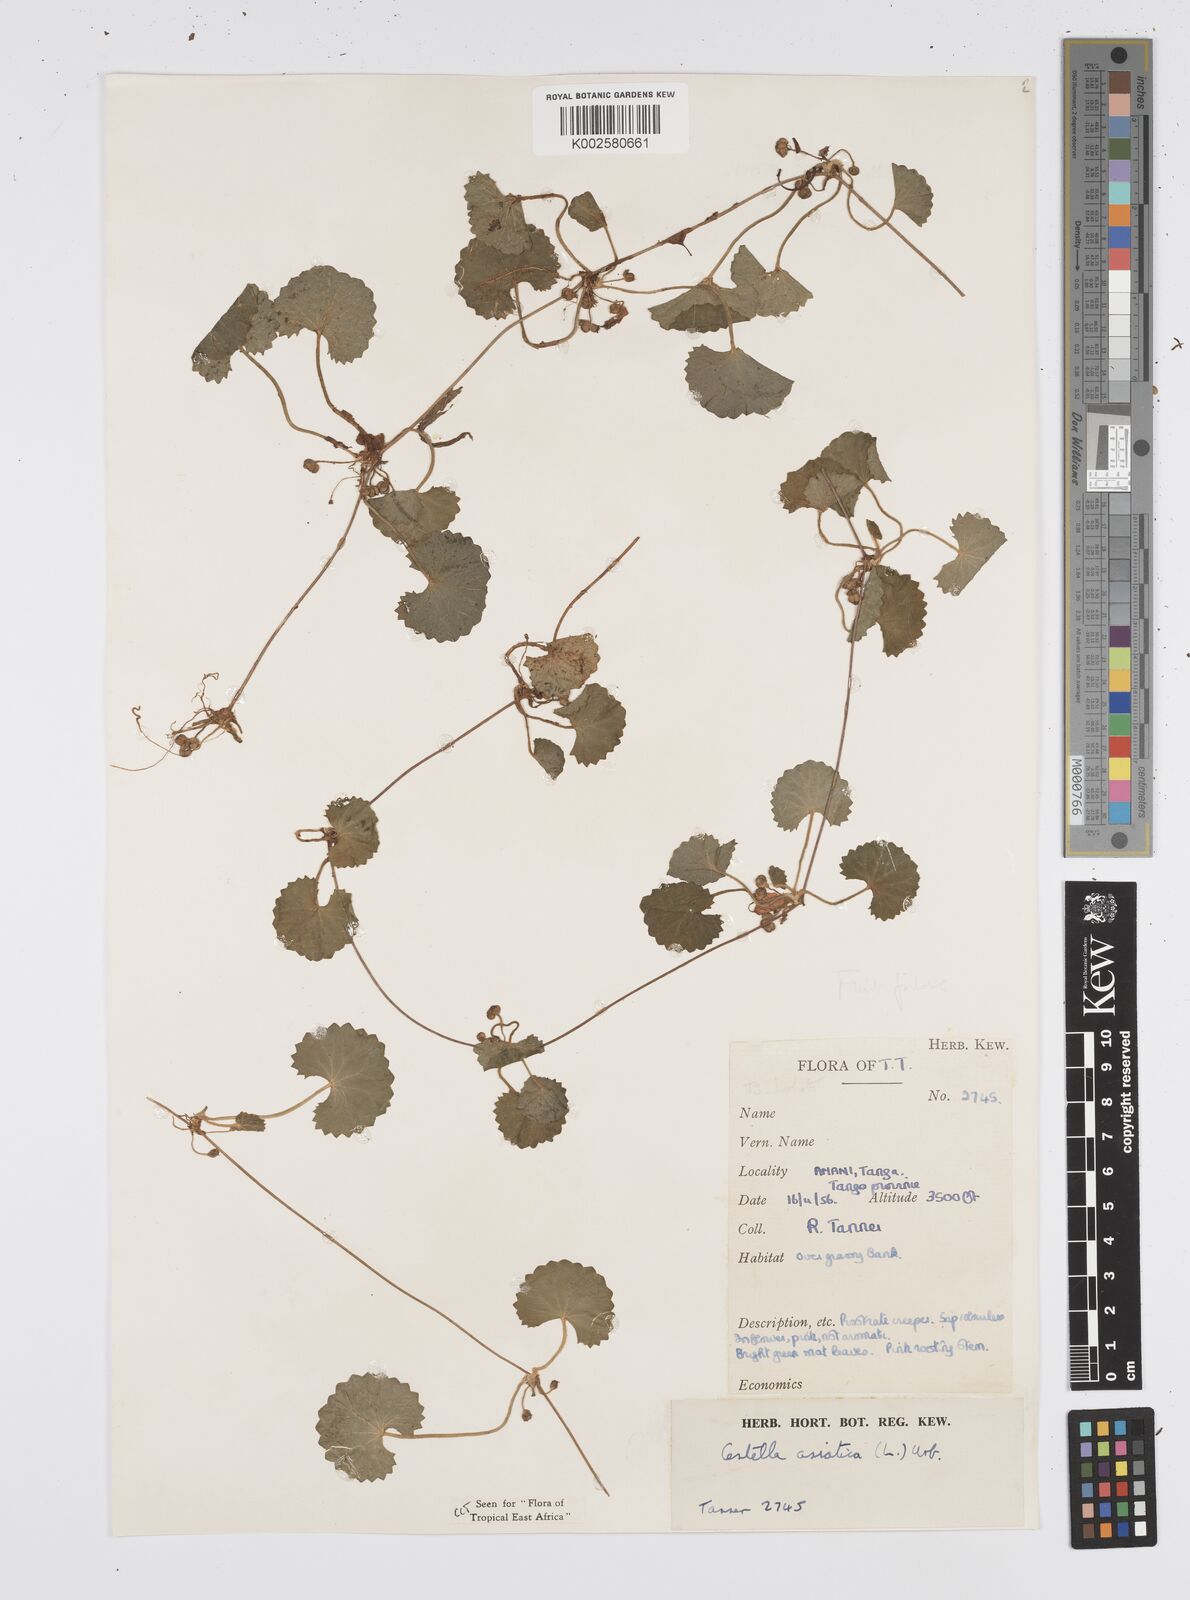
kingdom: Plantae
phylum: Tracheophyta
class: Magnoliopsida
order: Apiales
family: Apiaceae
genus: Centella
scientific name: Centella asiatica
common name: Spadeleaf
